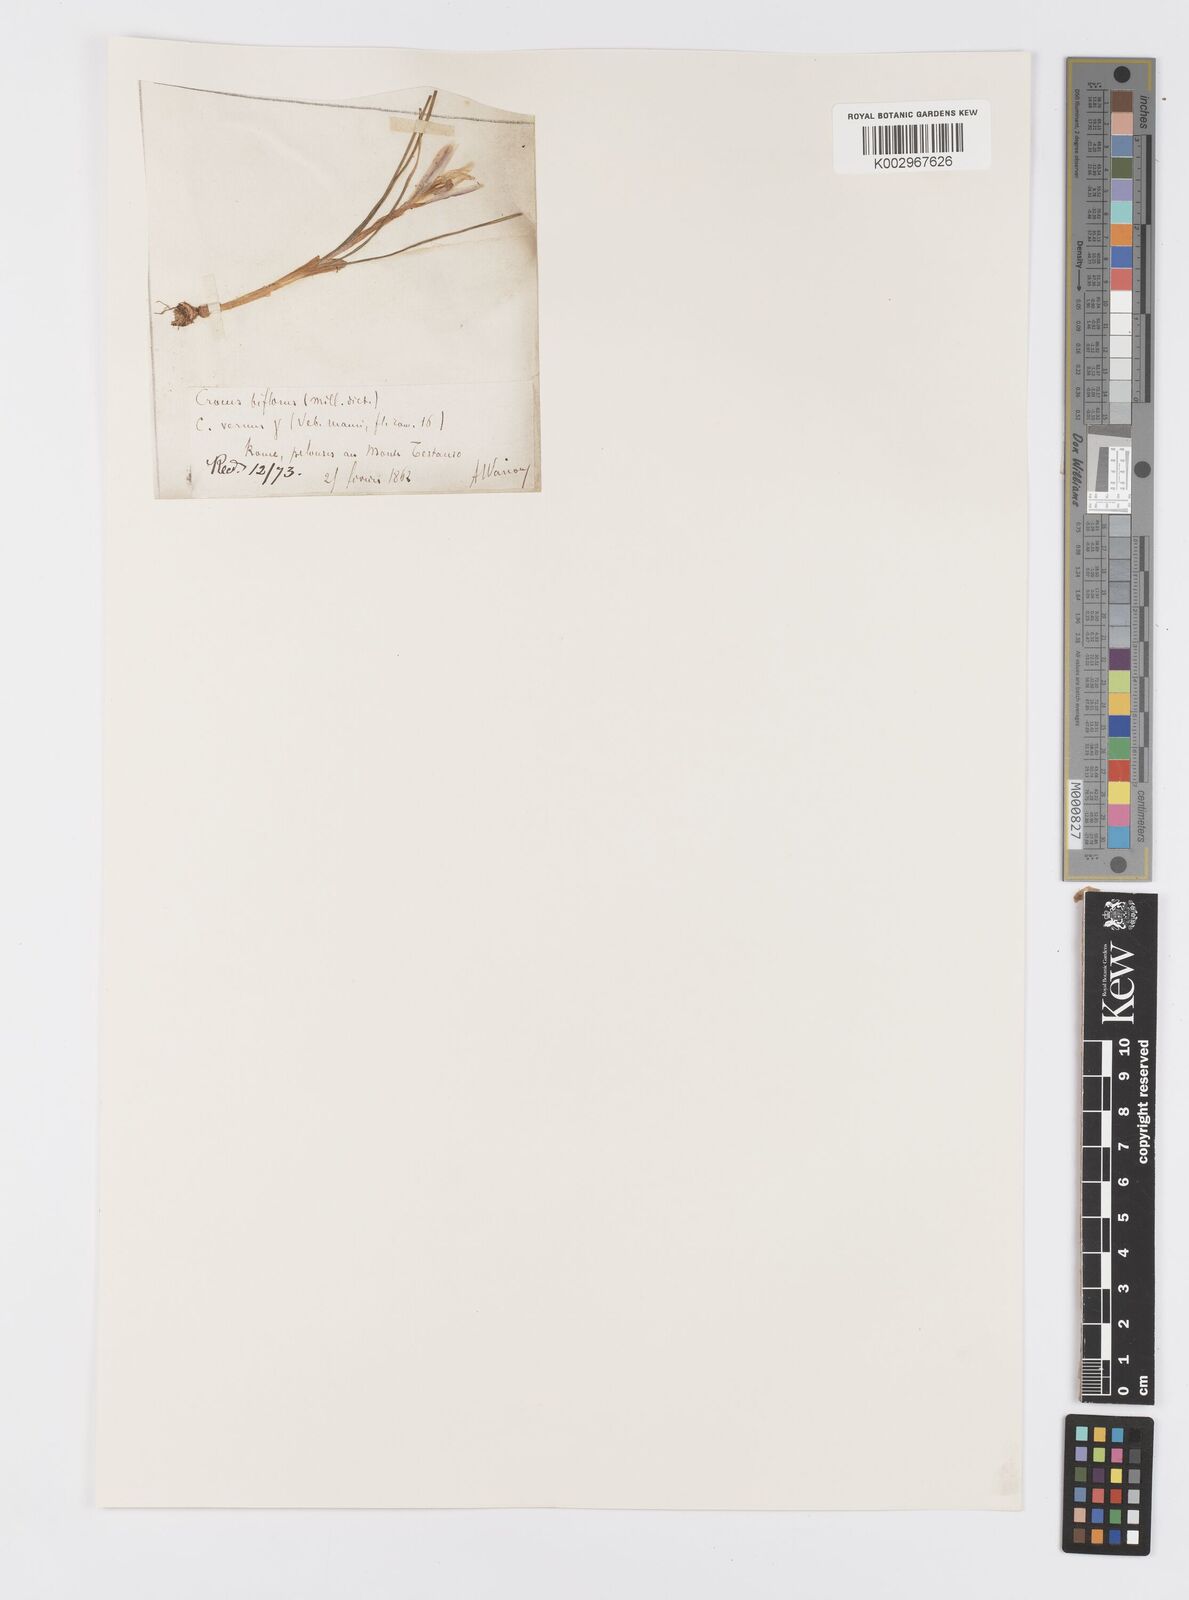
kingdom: Plantae
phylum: Tracheophyta
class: Liliopsida
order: Asparagales
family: Iridaceae
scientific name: Iridaceae
